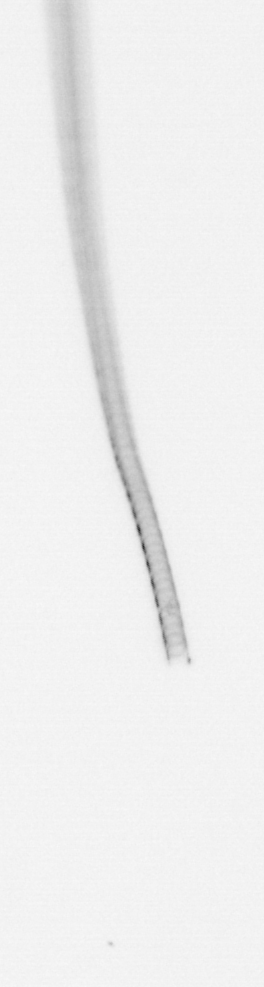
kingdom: Chromista
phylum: Ochrophyta
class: Bacillariophyceae
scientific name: Bacillariophyceae
